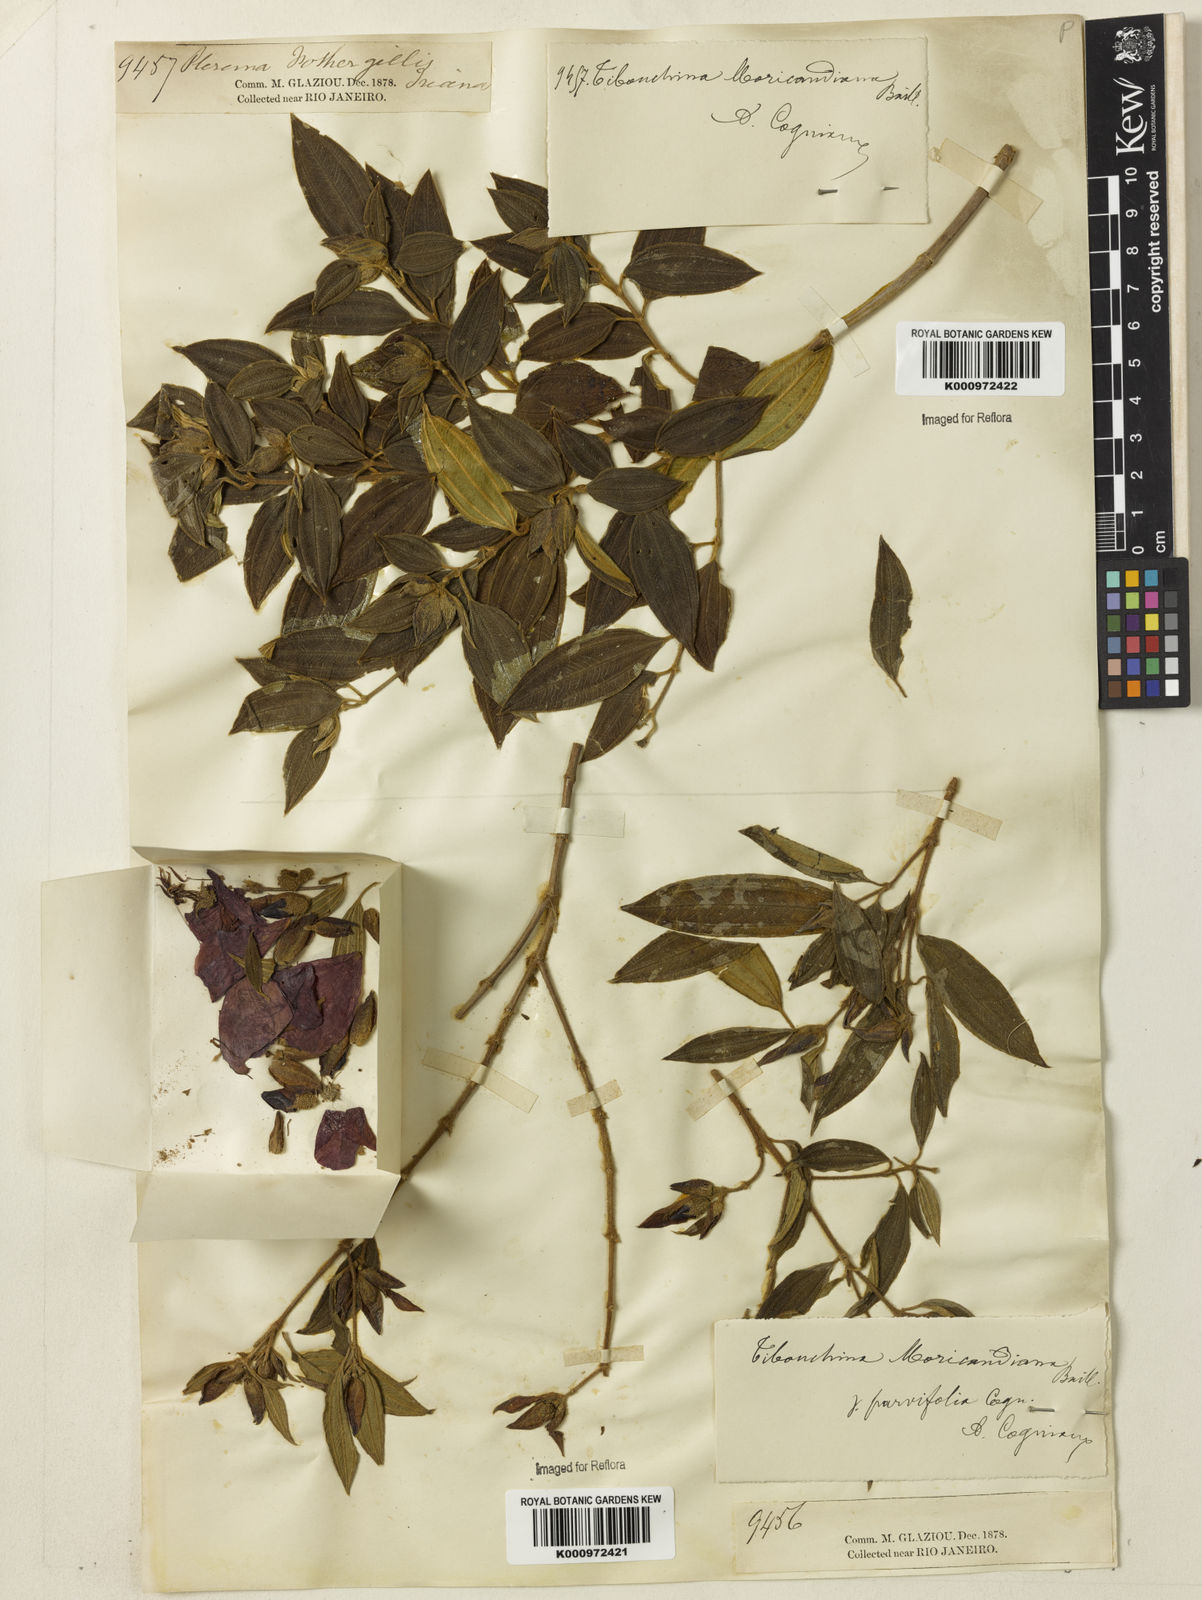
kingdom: Plantae
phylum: Tracheophyta
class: Magnoliopsida
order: Myrtales
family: Melastomataceae
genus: Pleroma
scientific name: Pleroma gaudichaudianum
